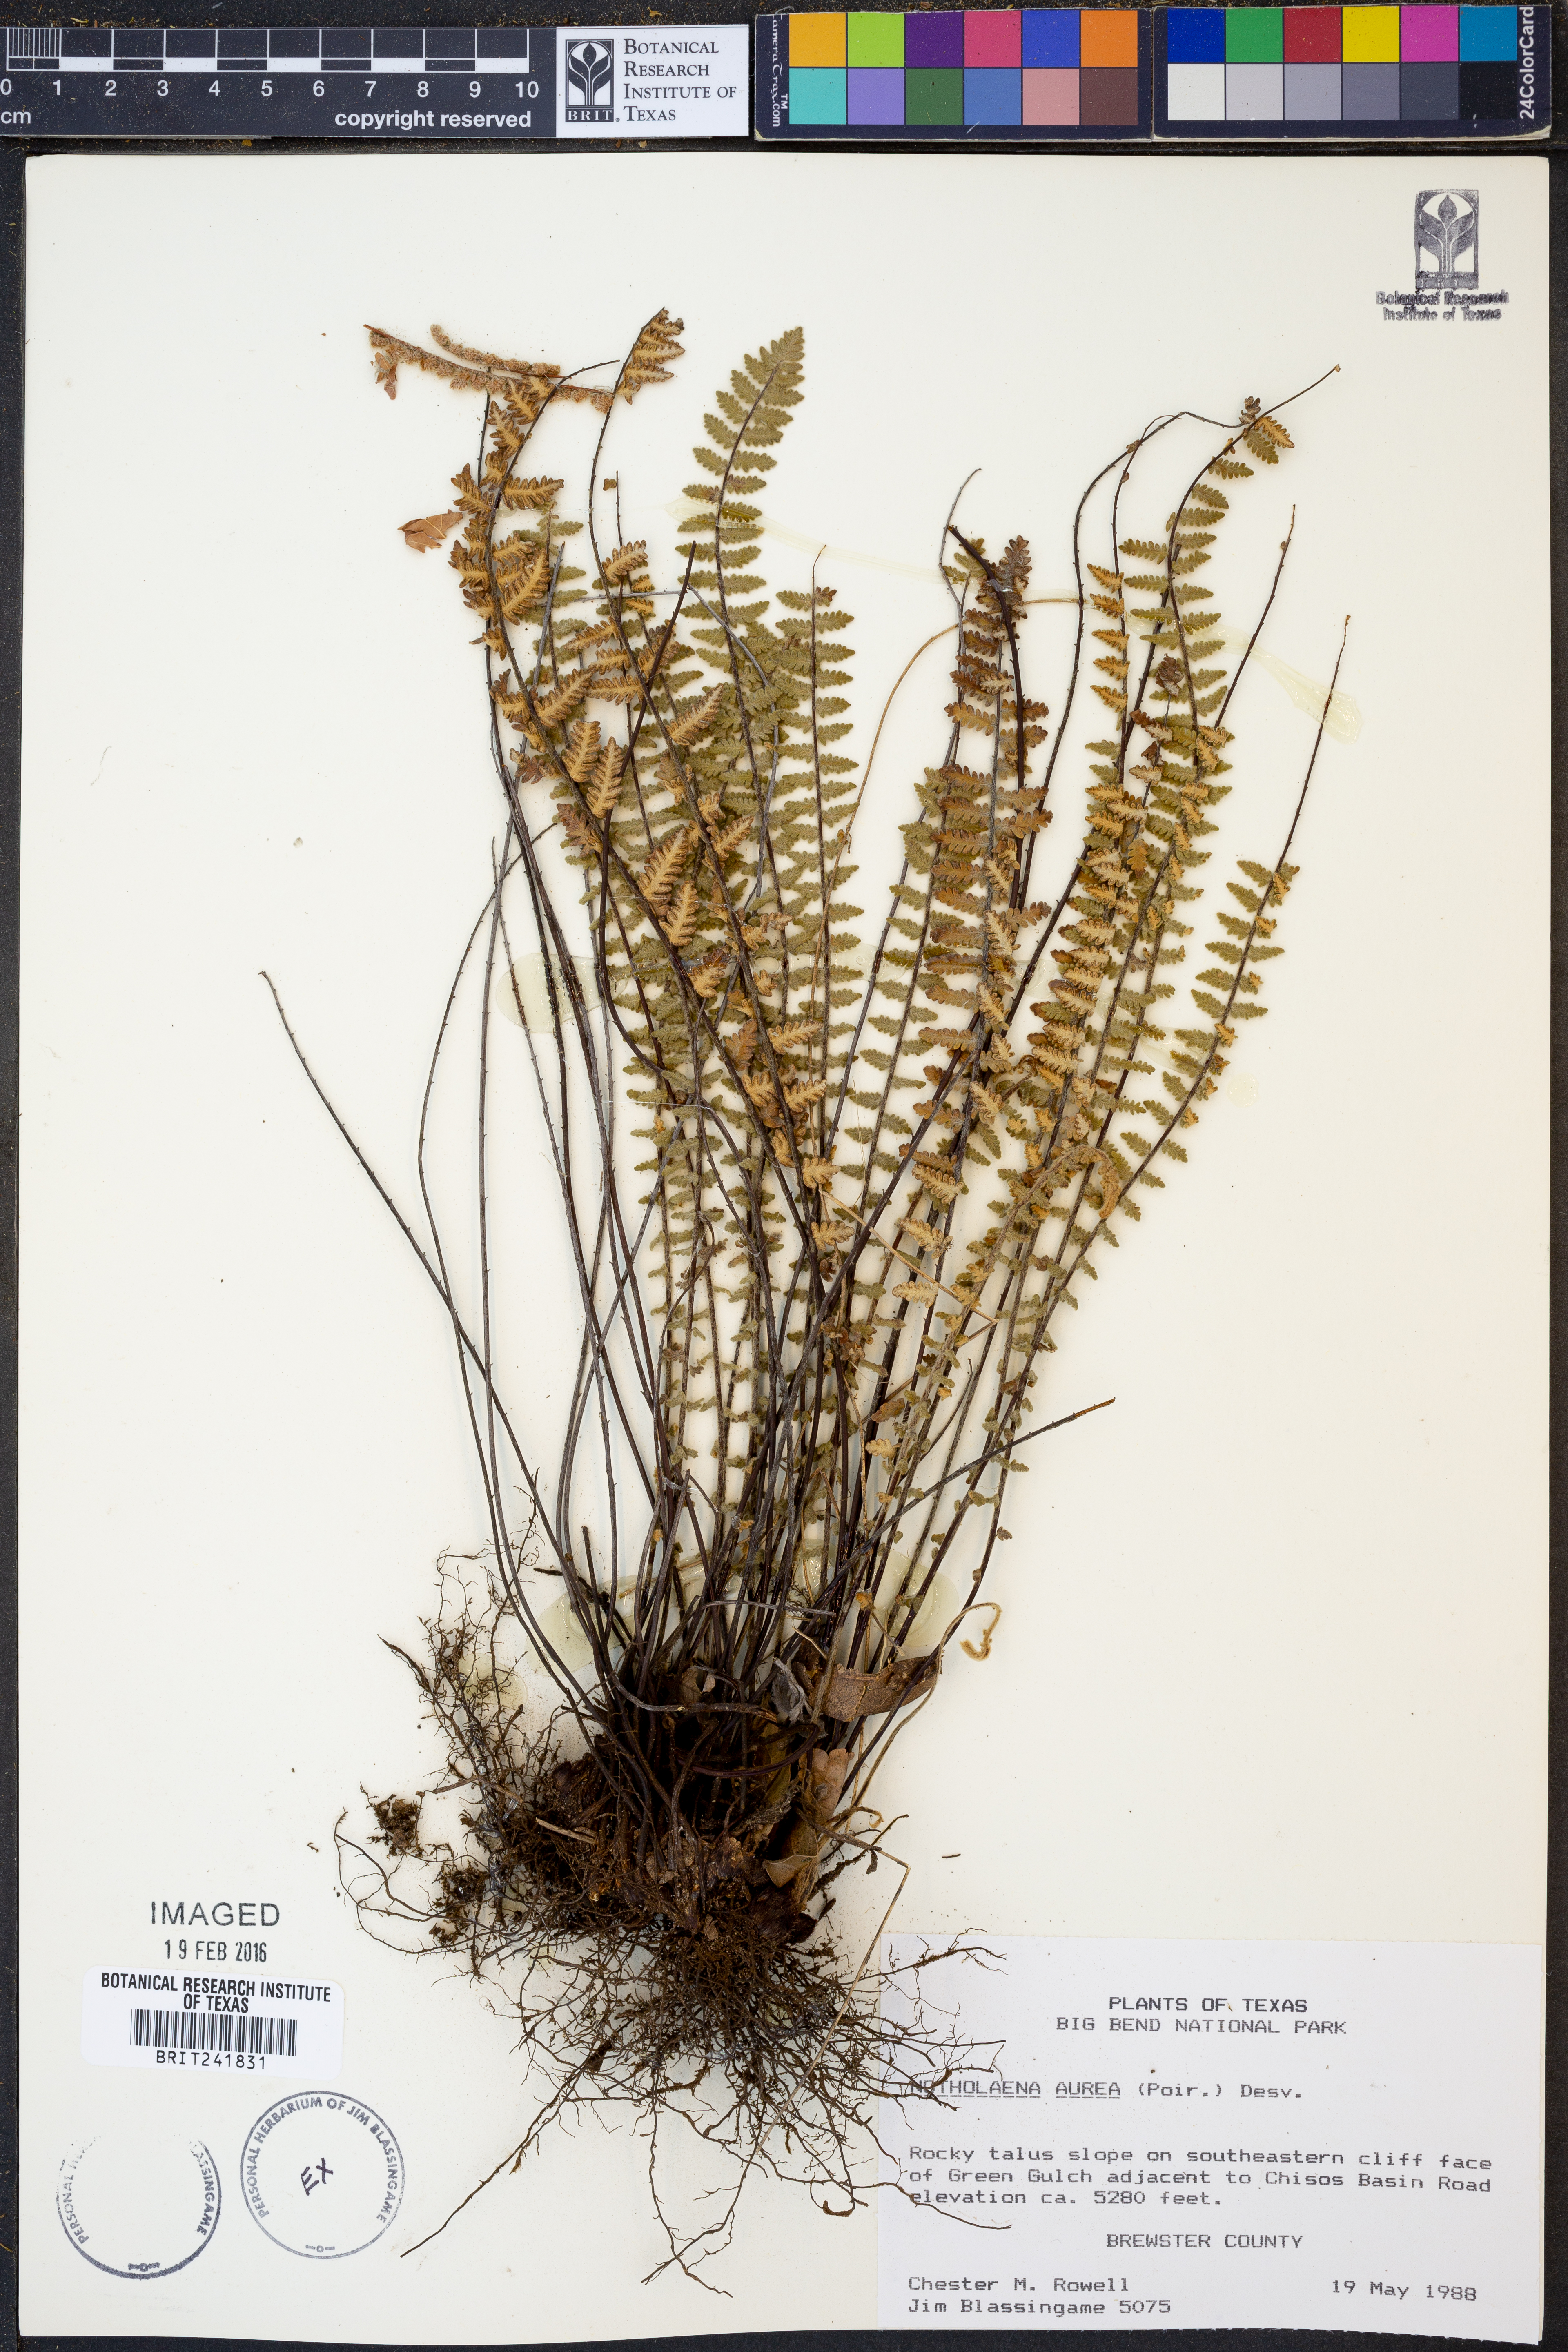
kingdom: Plantae
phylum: Tracheophyta
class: Polypodiopsida
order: Polypodiales
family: Pteridaceae
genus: Myriopteris
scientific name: Myriopteris aurea
